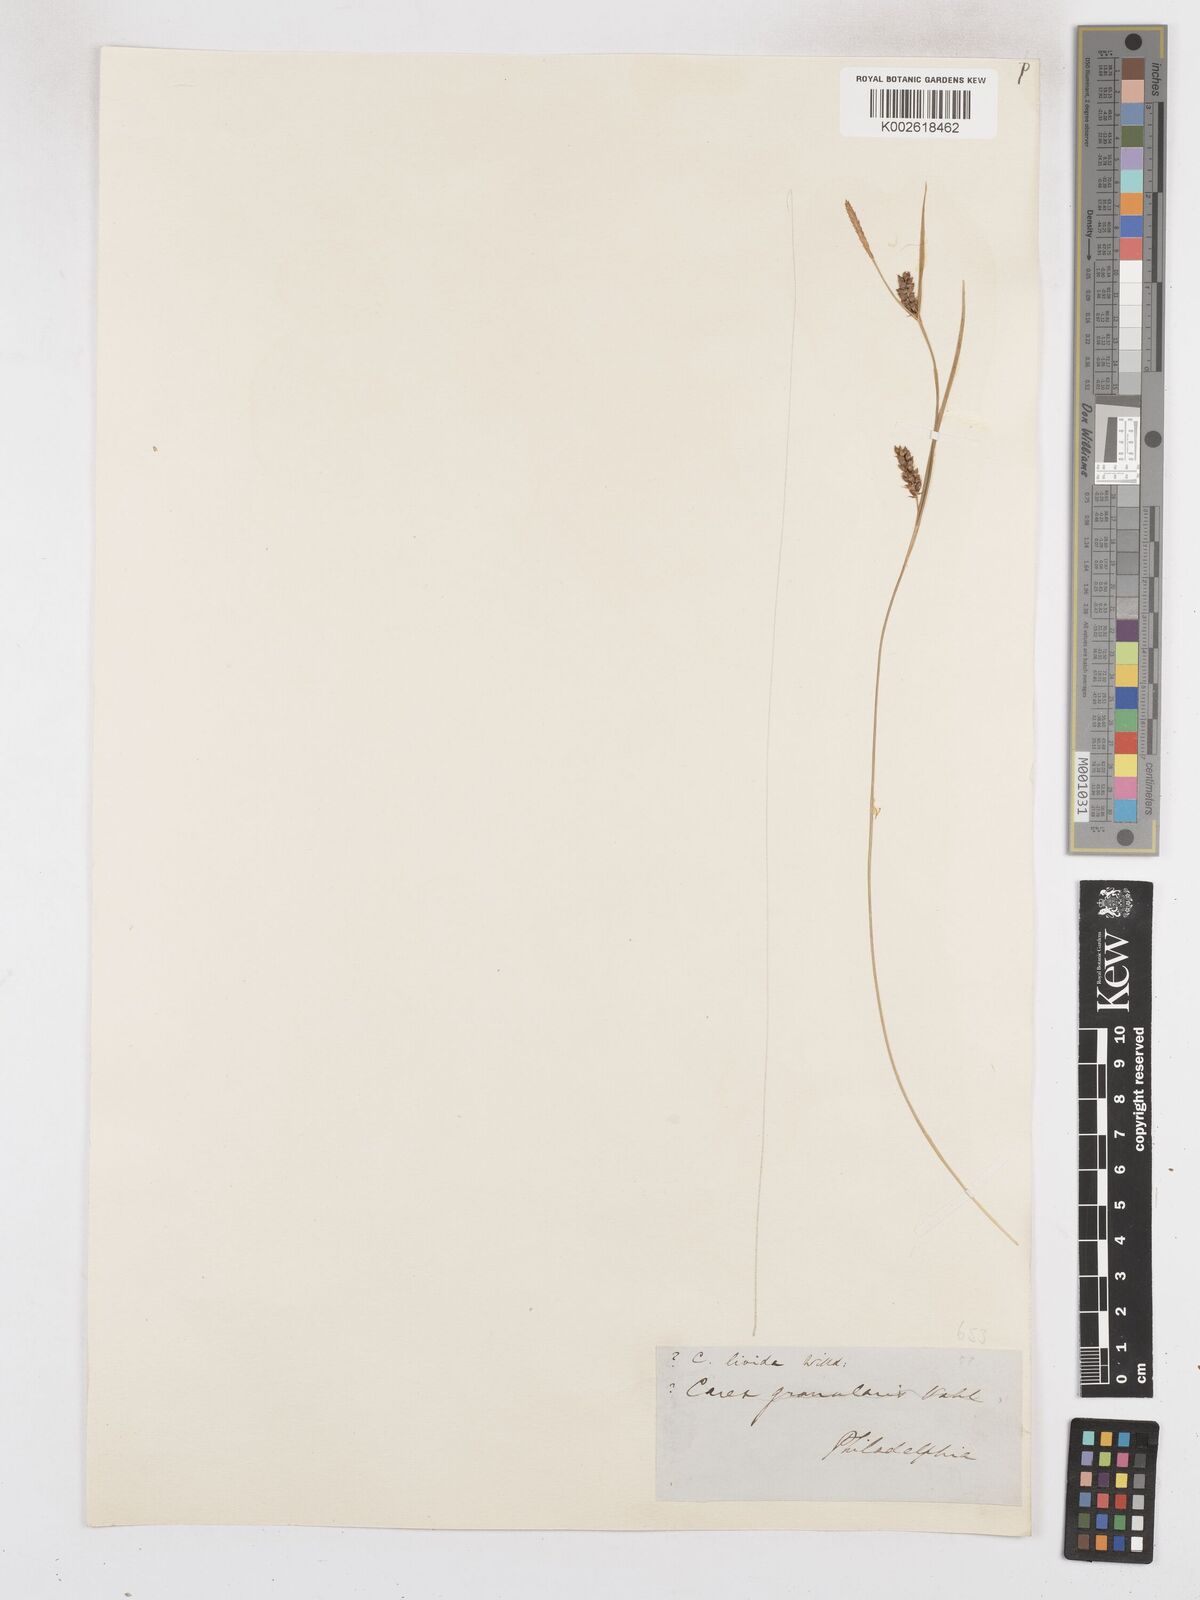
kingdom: Plantae
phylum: Tracheophyta
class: Liliopsida
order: Poales
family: Cyperaceae
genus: Carex
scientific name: Carex livida
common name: Livid sedge
